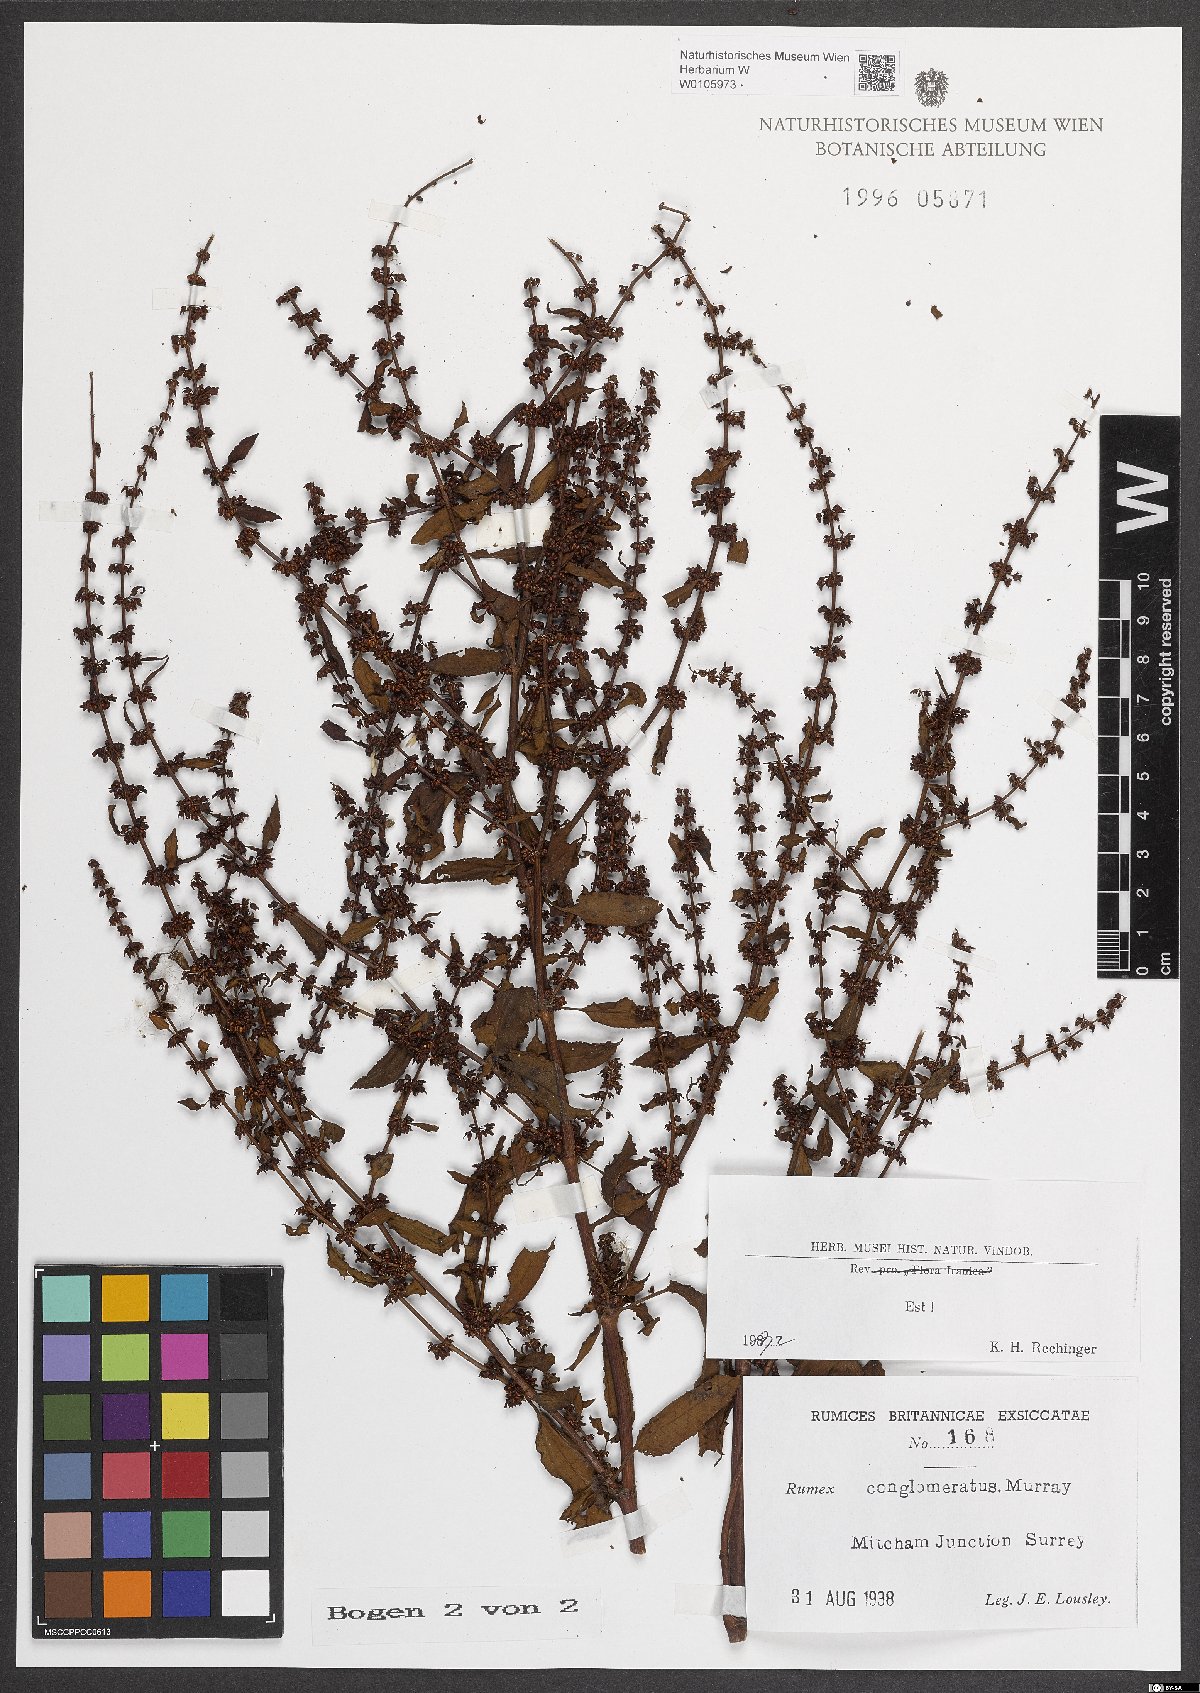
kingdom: Plantae
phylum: Tracheophyta
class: Magnoliopsida
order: Caryophyllales
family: Polygonaceae
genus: Rumex
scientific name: Rumex conglomeratus
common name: Clustered dock
